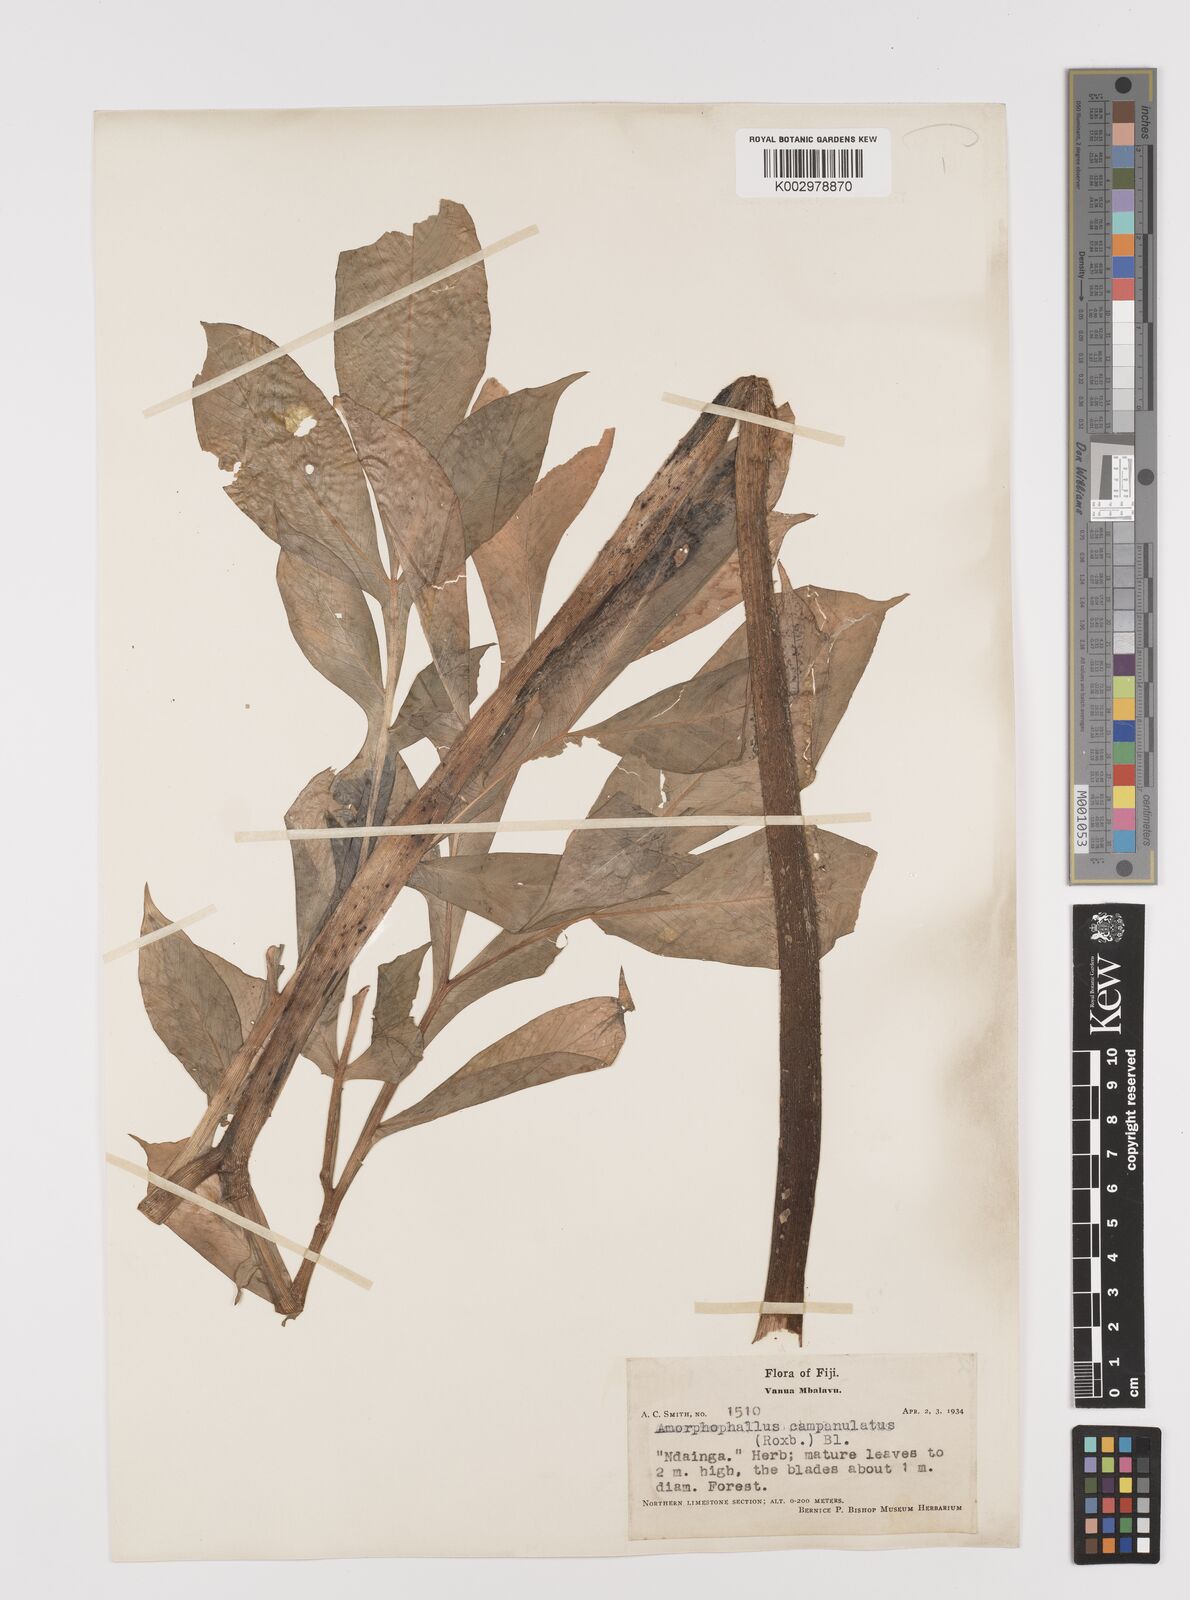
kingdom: Plantae
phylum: Tracheophyta
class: Liliopsida
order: Alismatales
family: Araceae
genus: Amorphophallus
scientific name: Amorphophallus paeoniifolius
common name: Telinga-potato
